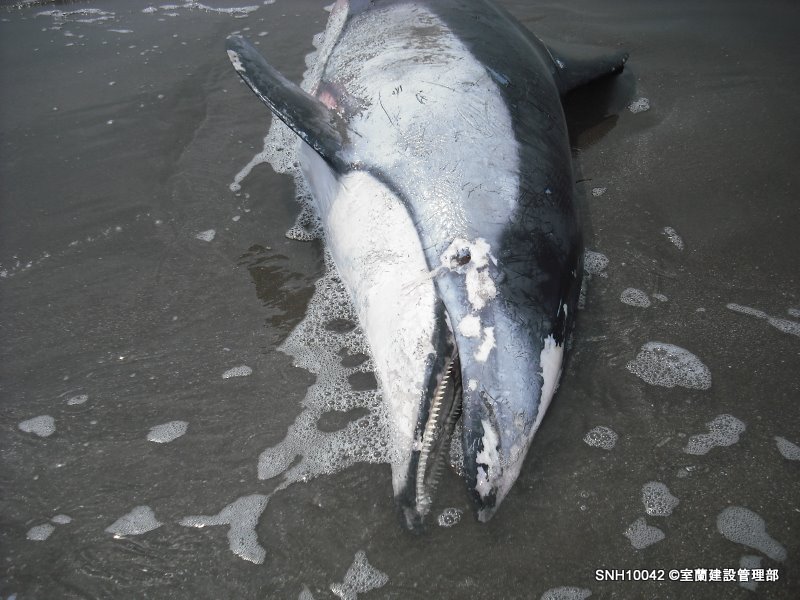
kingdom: Animalia
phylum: Chordata
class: Mammalia
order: Cetacea
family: Delphinidae
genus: Lagenorhynchus
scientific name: Lagenorhynchus obliquidens
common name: Pacific white-sided dolphin
